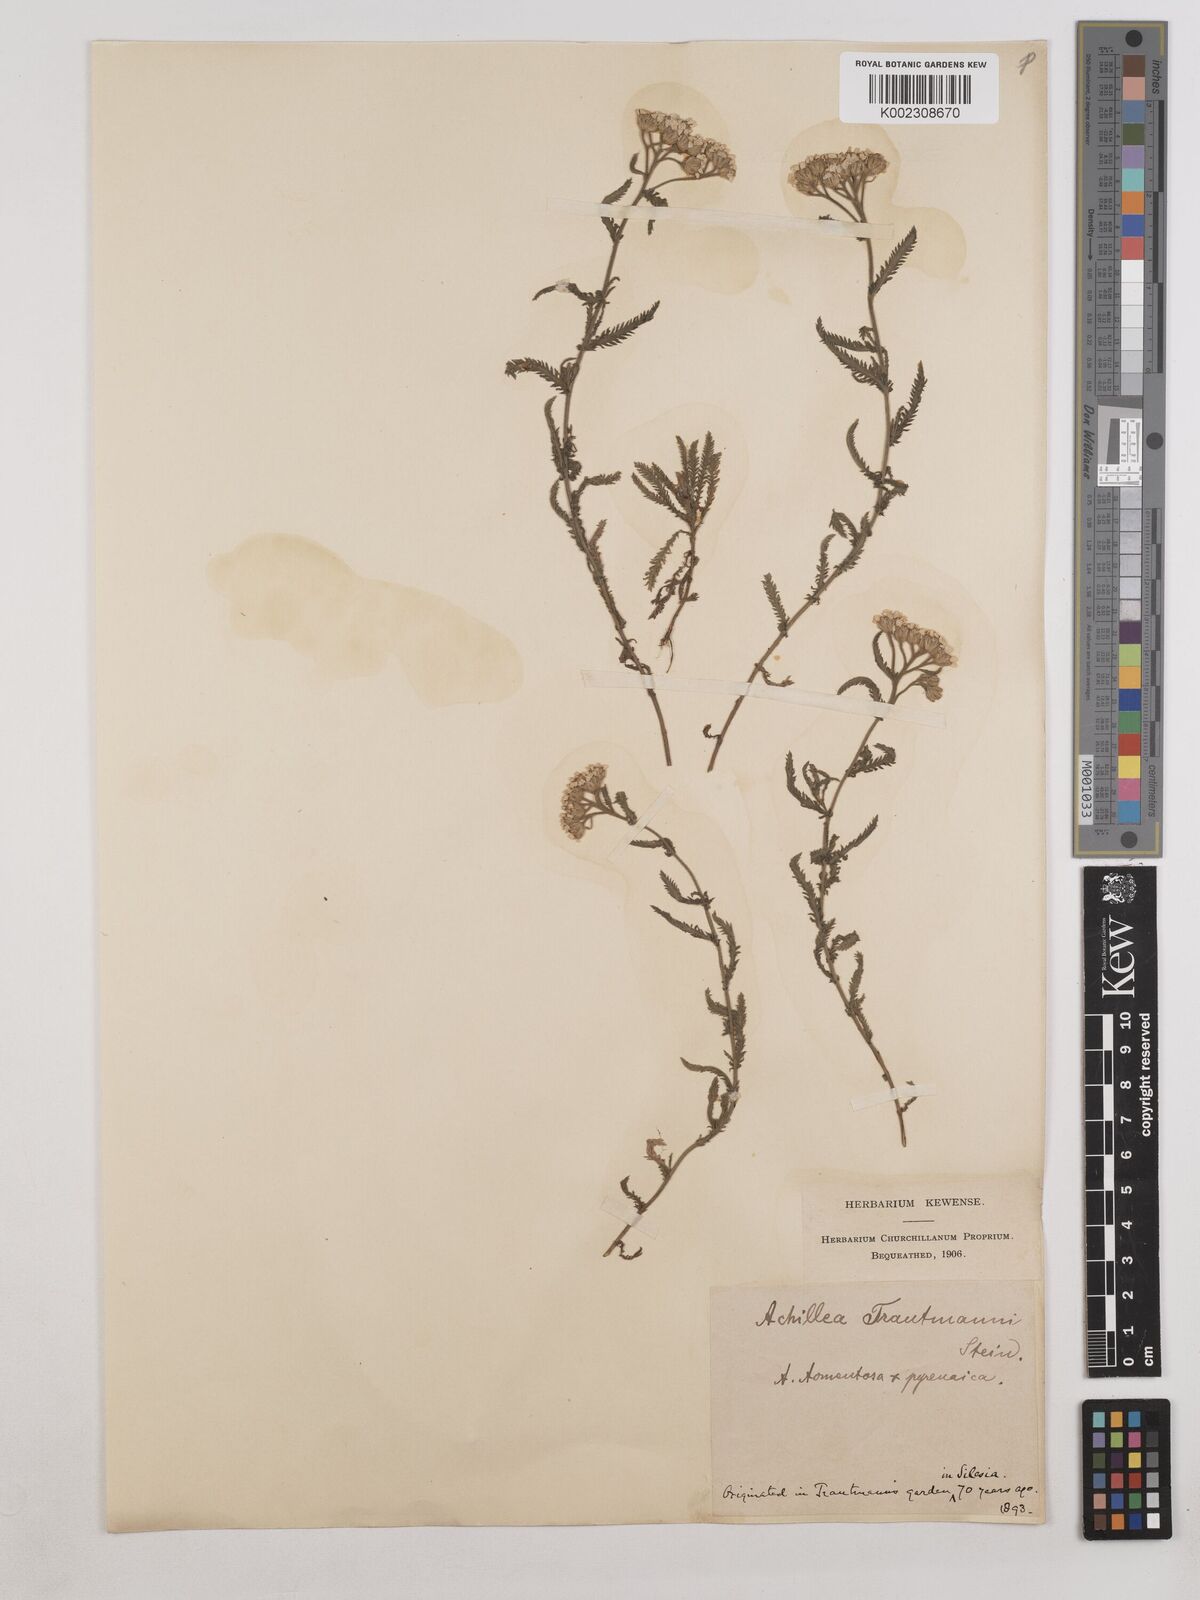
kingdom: Plantae
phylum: Tracheophyta
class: Magnoliopsida
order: Asterales
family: Asteraceae
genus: Achillea
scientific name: Achillea tomentosa
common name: Yellow milfoil
